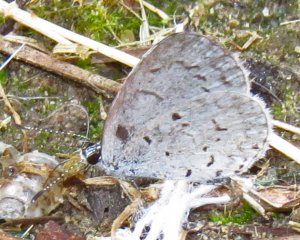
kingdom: Animalia
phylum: Arthropoda
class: Insecta
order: Lepidoptera
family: Lycaenidae
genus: Cyaniris
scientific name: Cyaniris neglecta
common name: Summer Azure
